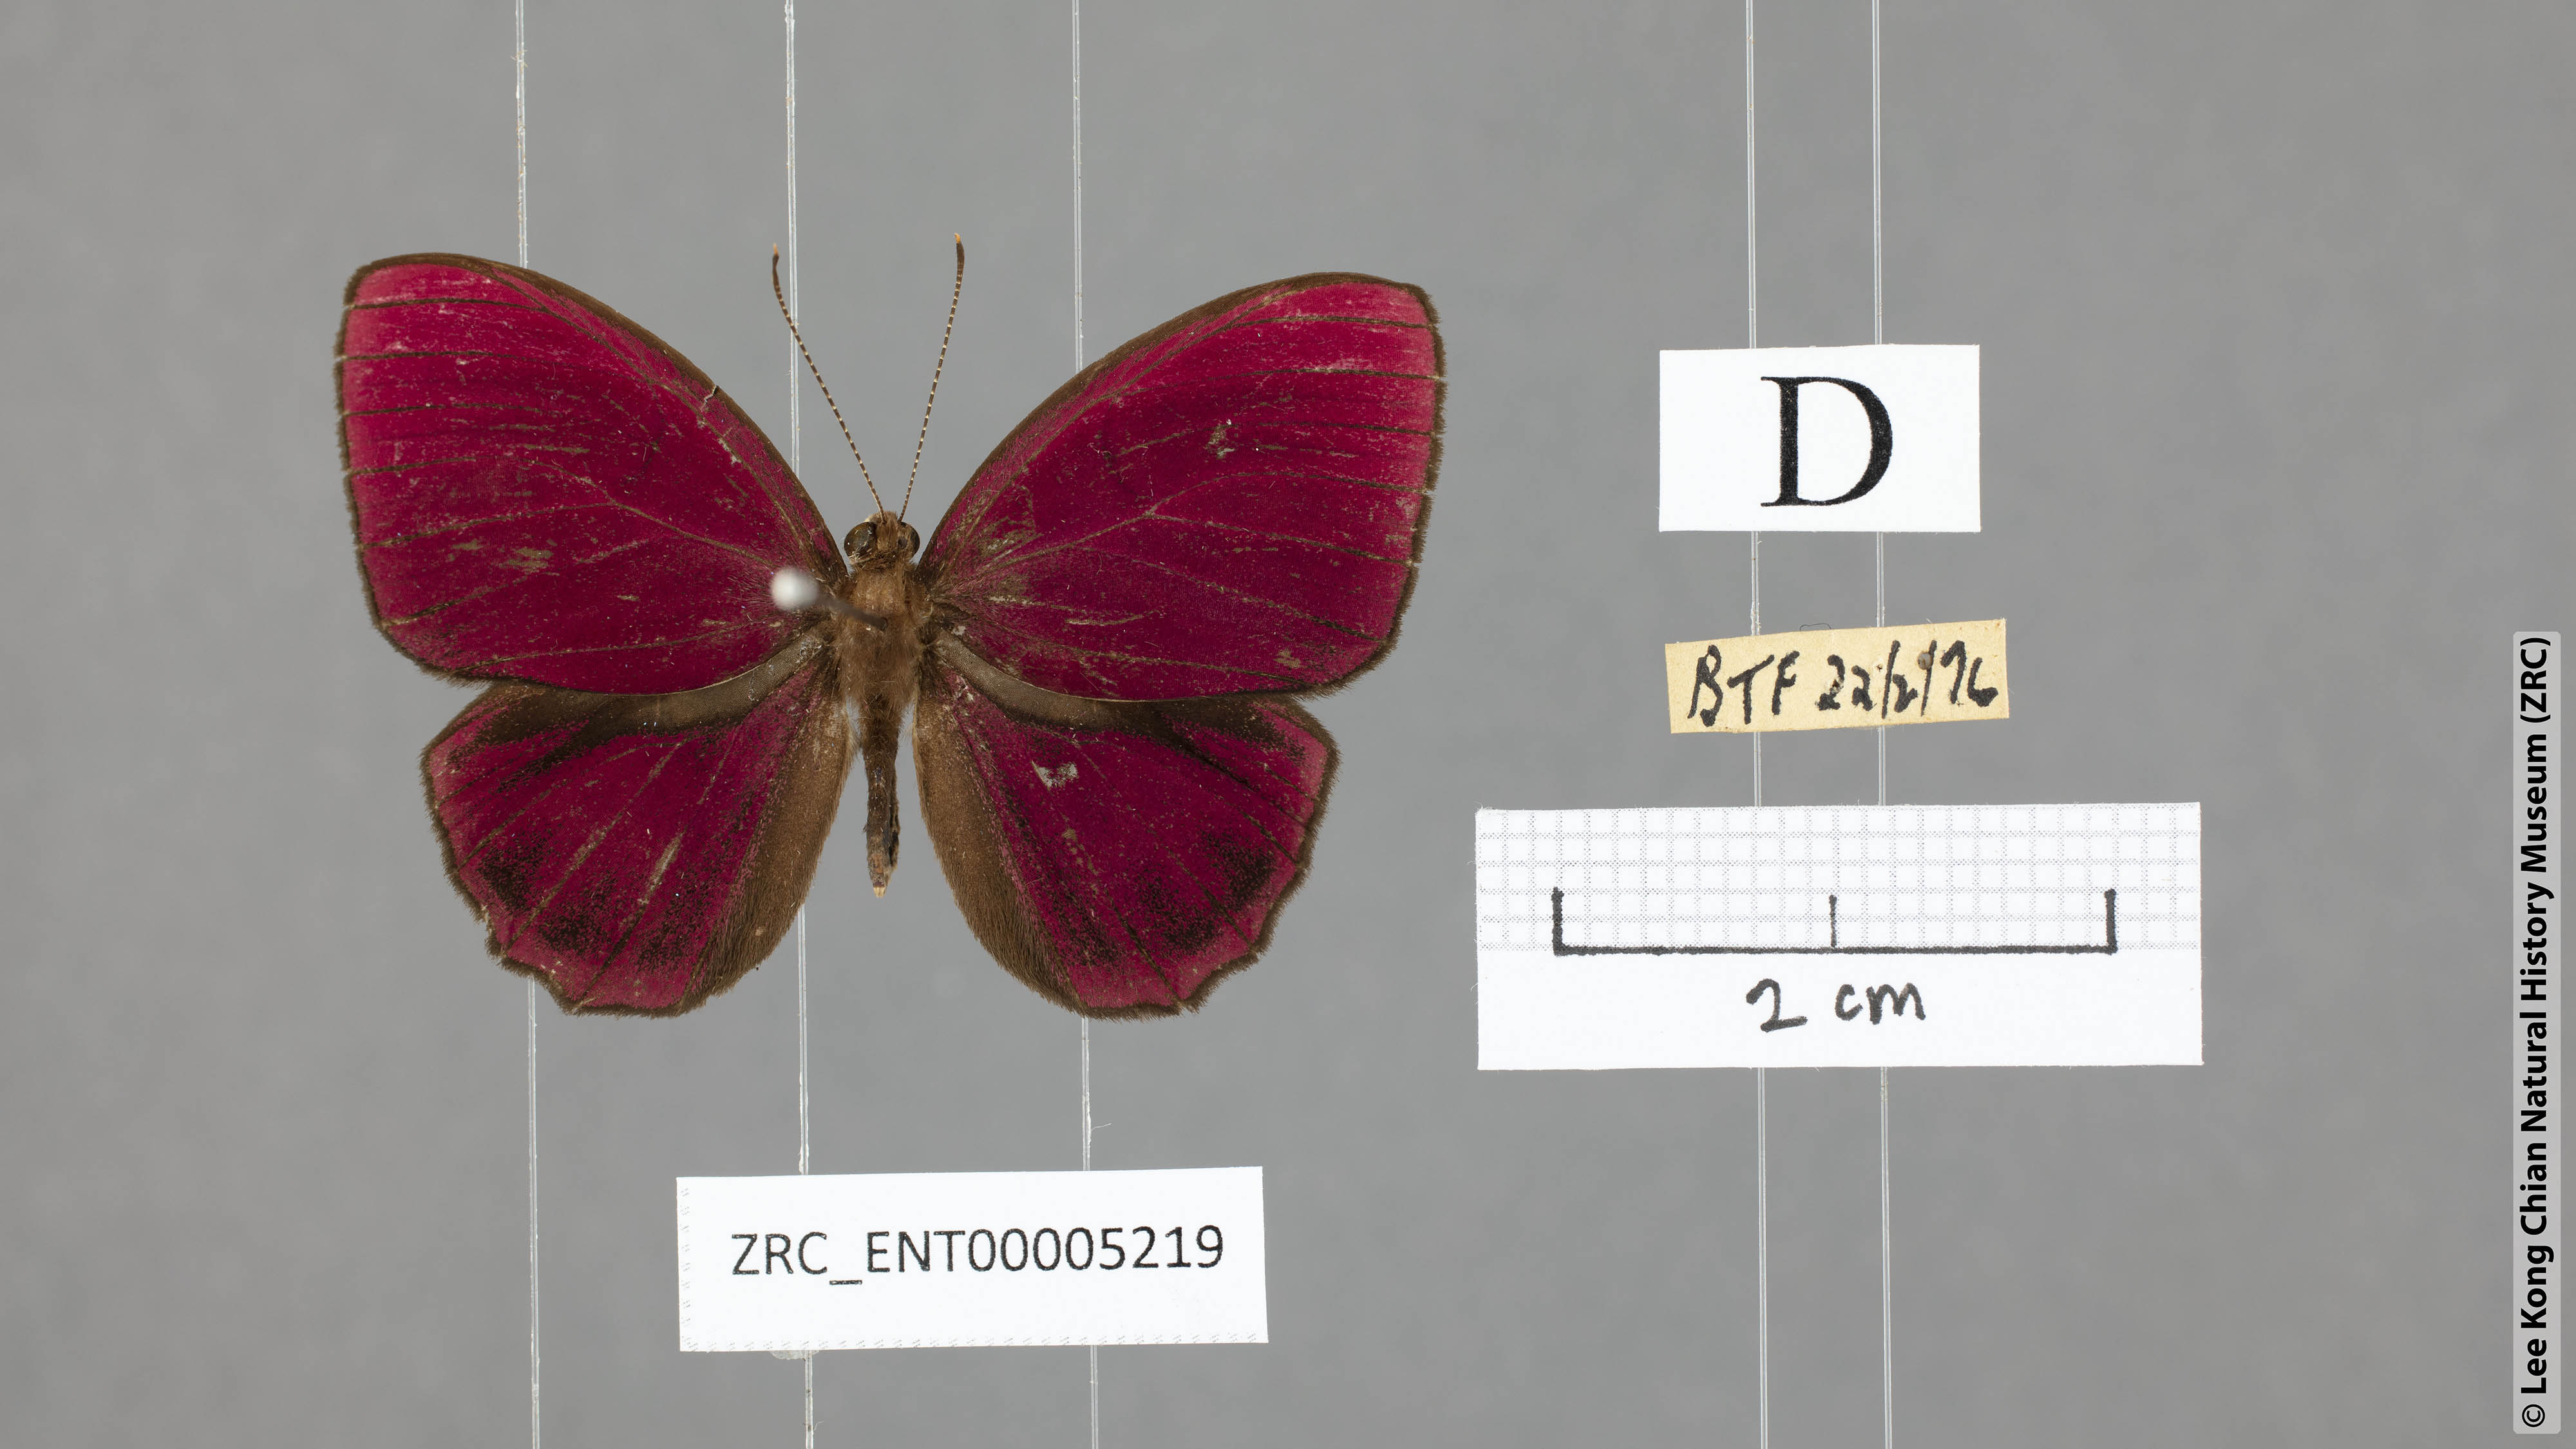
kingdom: Animalia
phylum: Arthropoda
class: Insecta
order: Lepidoptera
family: Riodinidae
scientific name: Riodinidae
